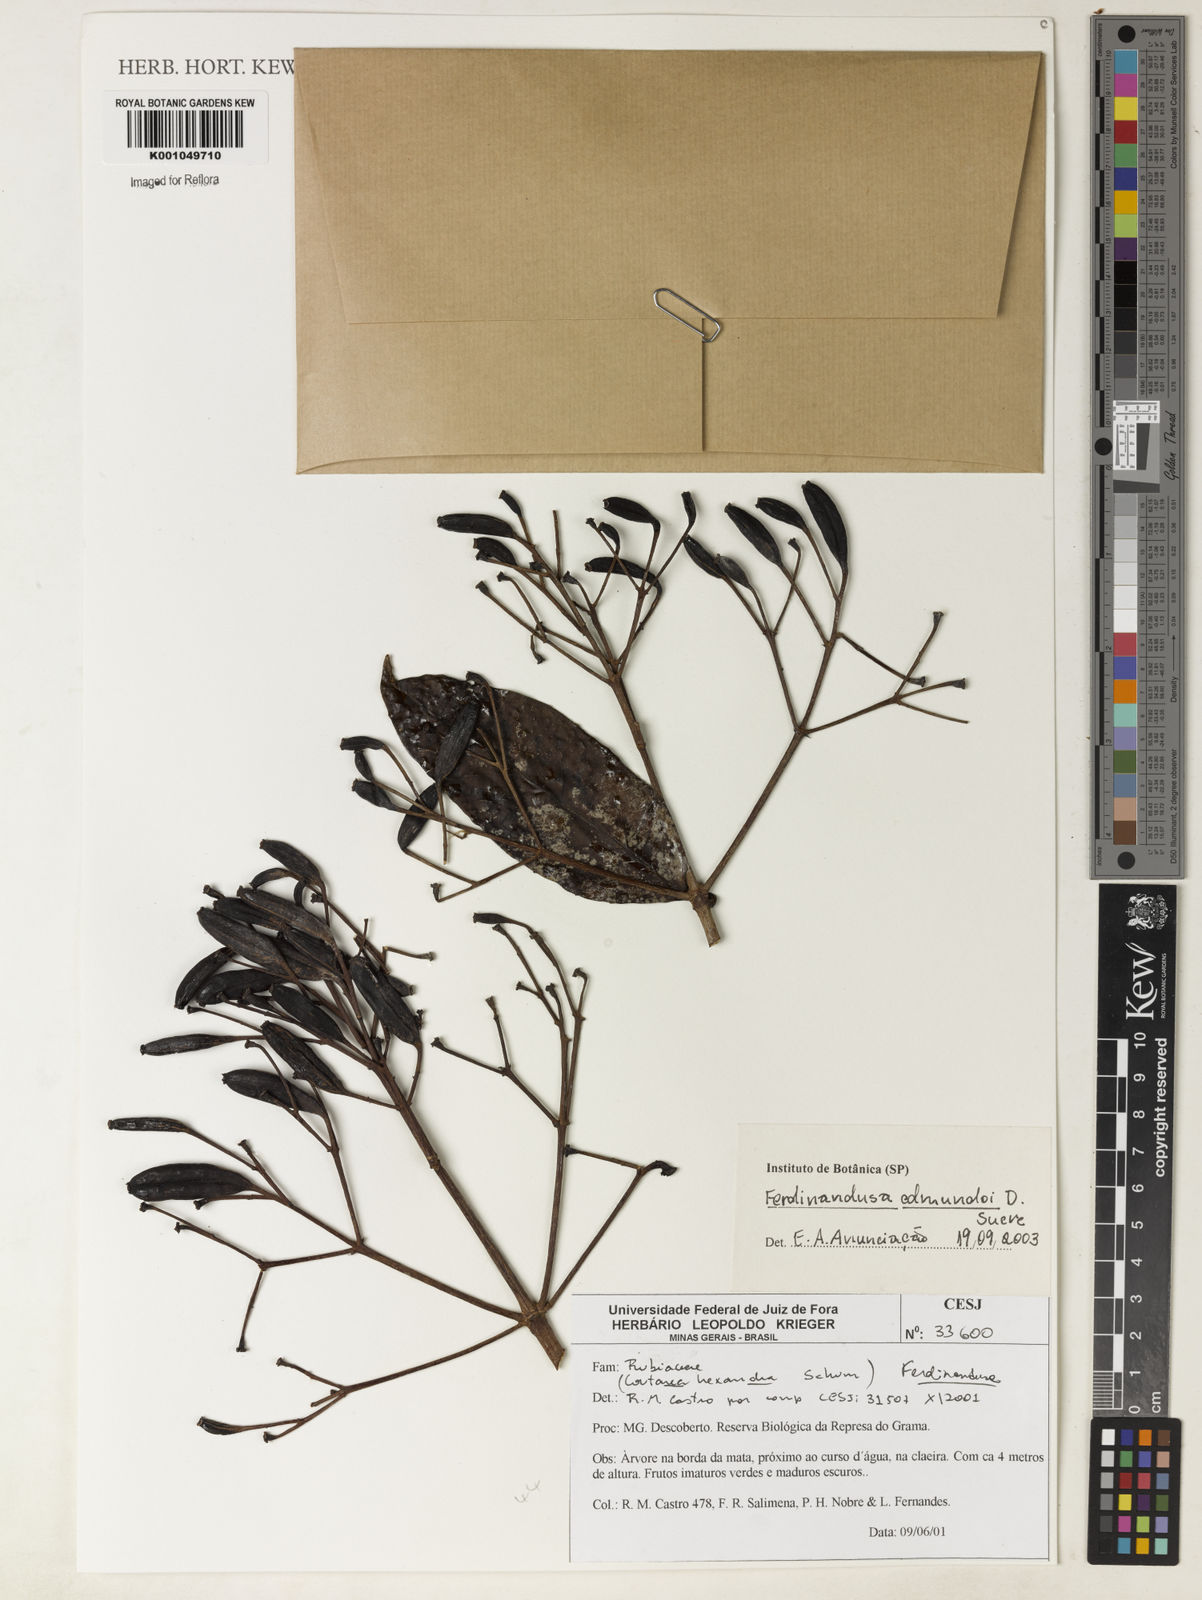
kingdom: Plantae
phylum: Tracheophyta
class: Magnoliopsida
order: Gentianales
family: Rubiaceae
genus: Ferdinandusa
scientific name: Ferdinandusa edmundoi
